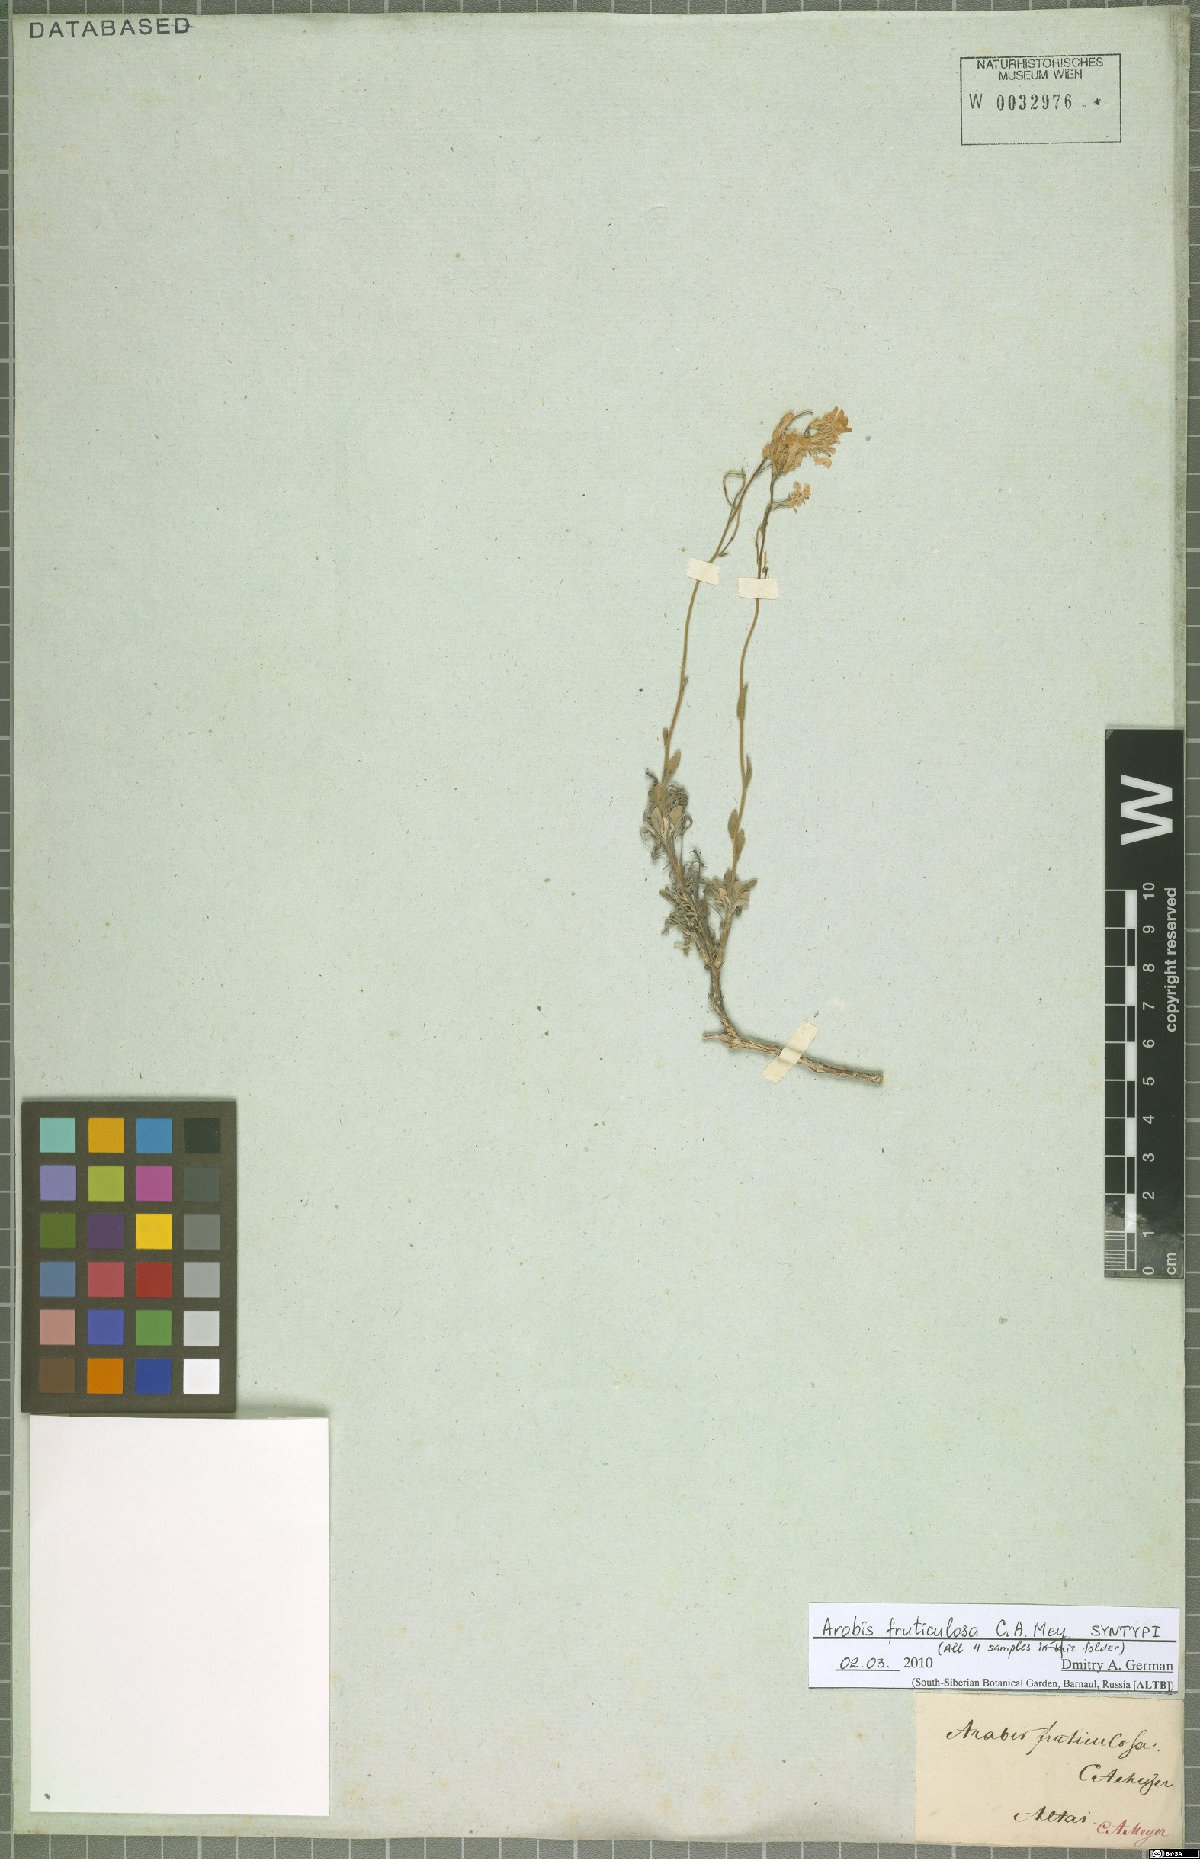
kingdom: Plantae
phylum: Tracheophyta
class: Magnoliopsida
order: Brassicales
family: Brassicaceae
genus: Dendroarabis
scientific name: Dendroarabis fruticulosa
